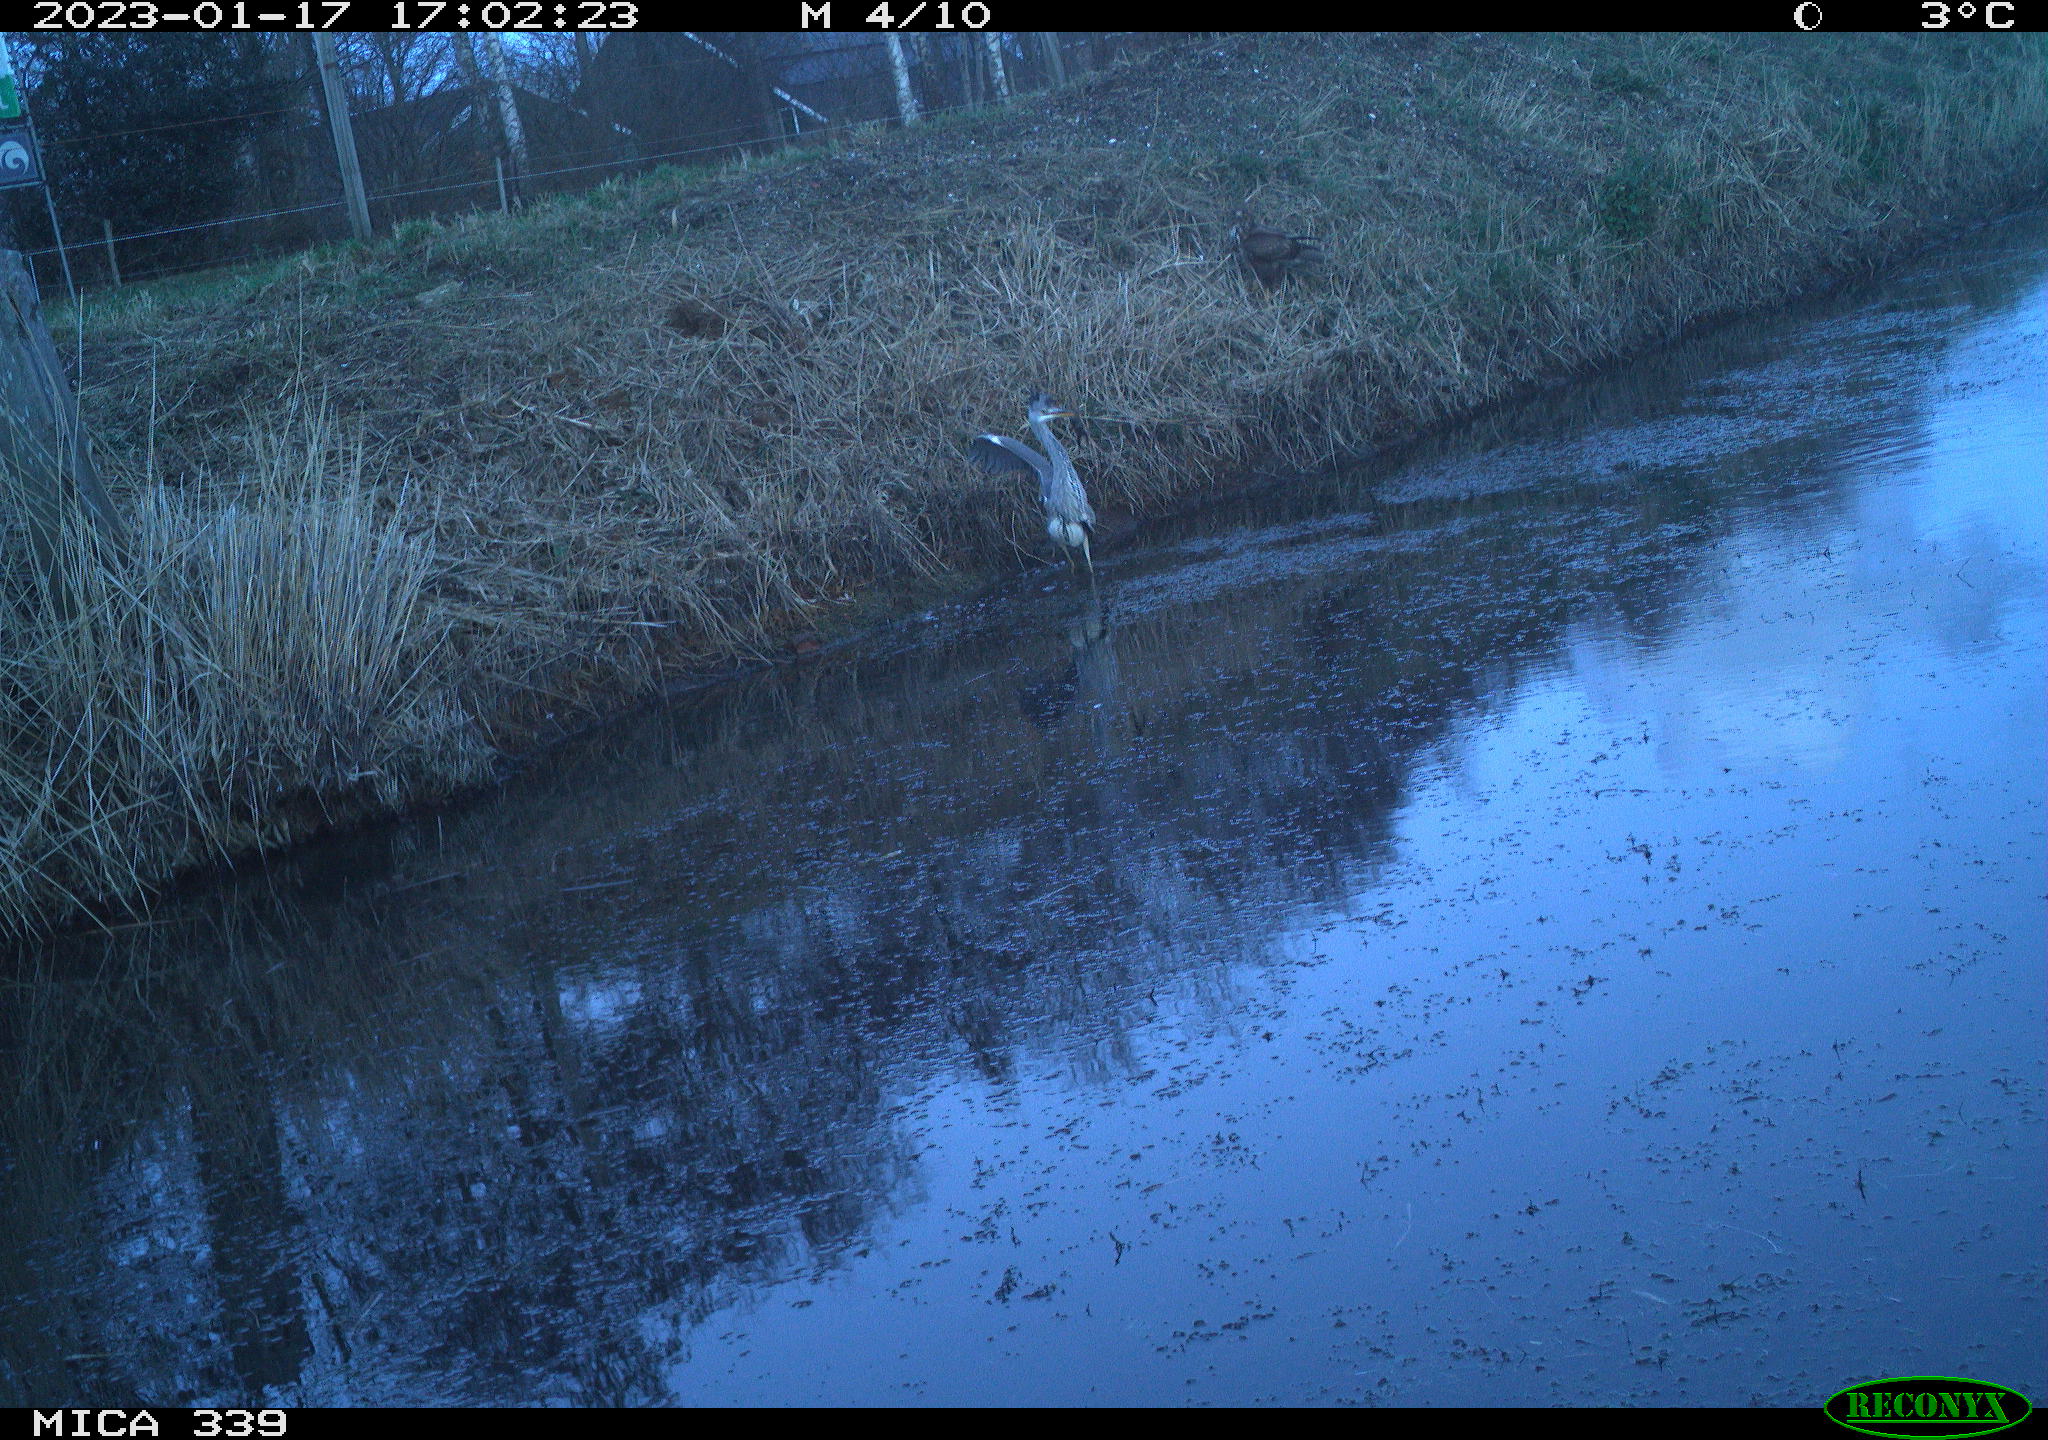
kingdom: Animalia
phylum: Chordata
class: Aves
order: Pelecaniformes
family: Ardeidae
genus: Ardea
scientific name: Ardea cinerea
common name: Grey heron
